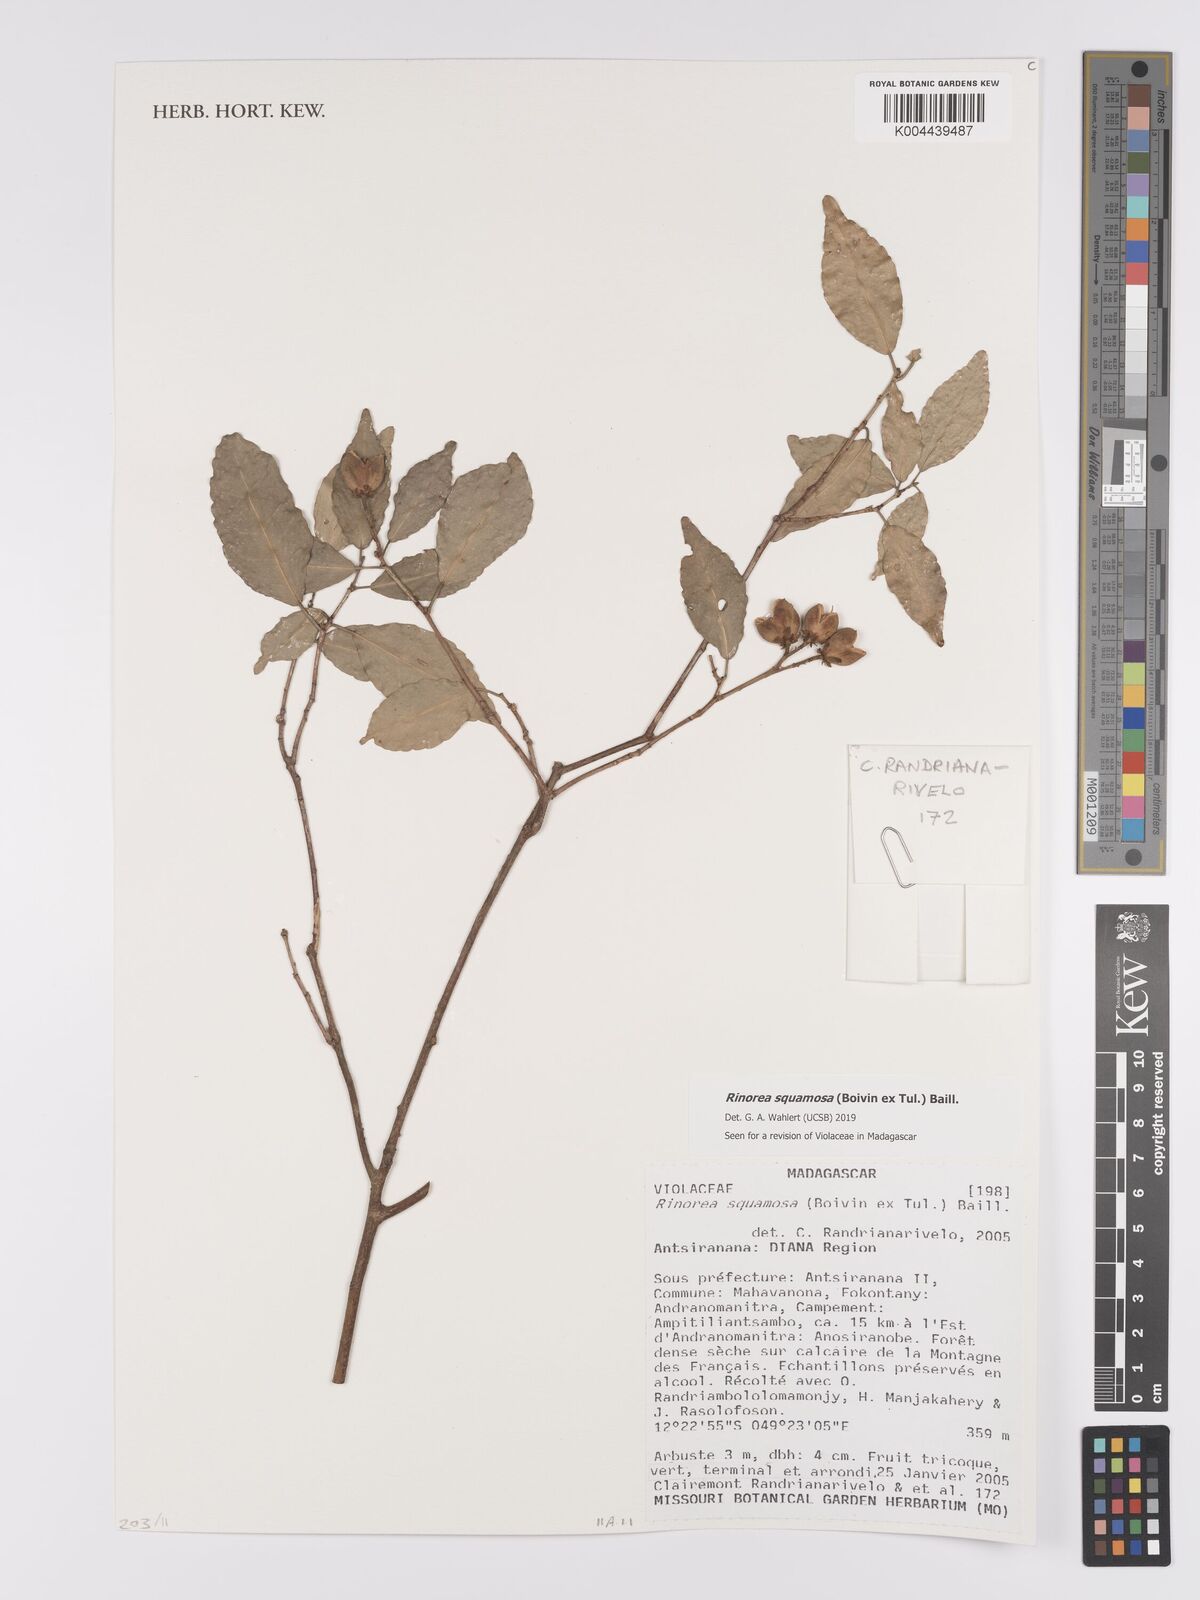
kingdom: Plantae
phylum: Tracheophyta
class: Magnoliopsida
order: Malpighiales
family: Violaceae
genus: Rinorea
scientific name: Rinorea squamosa
